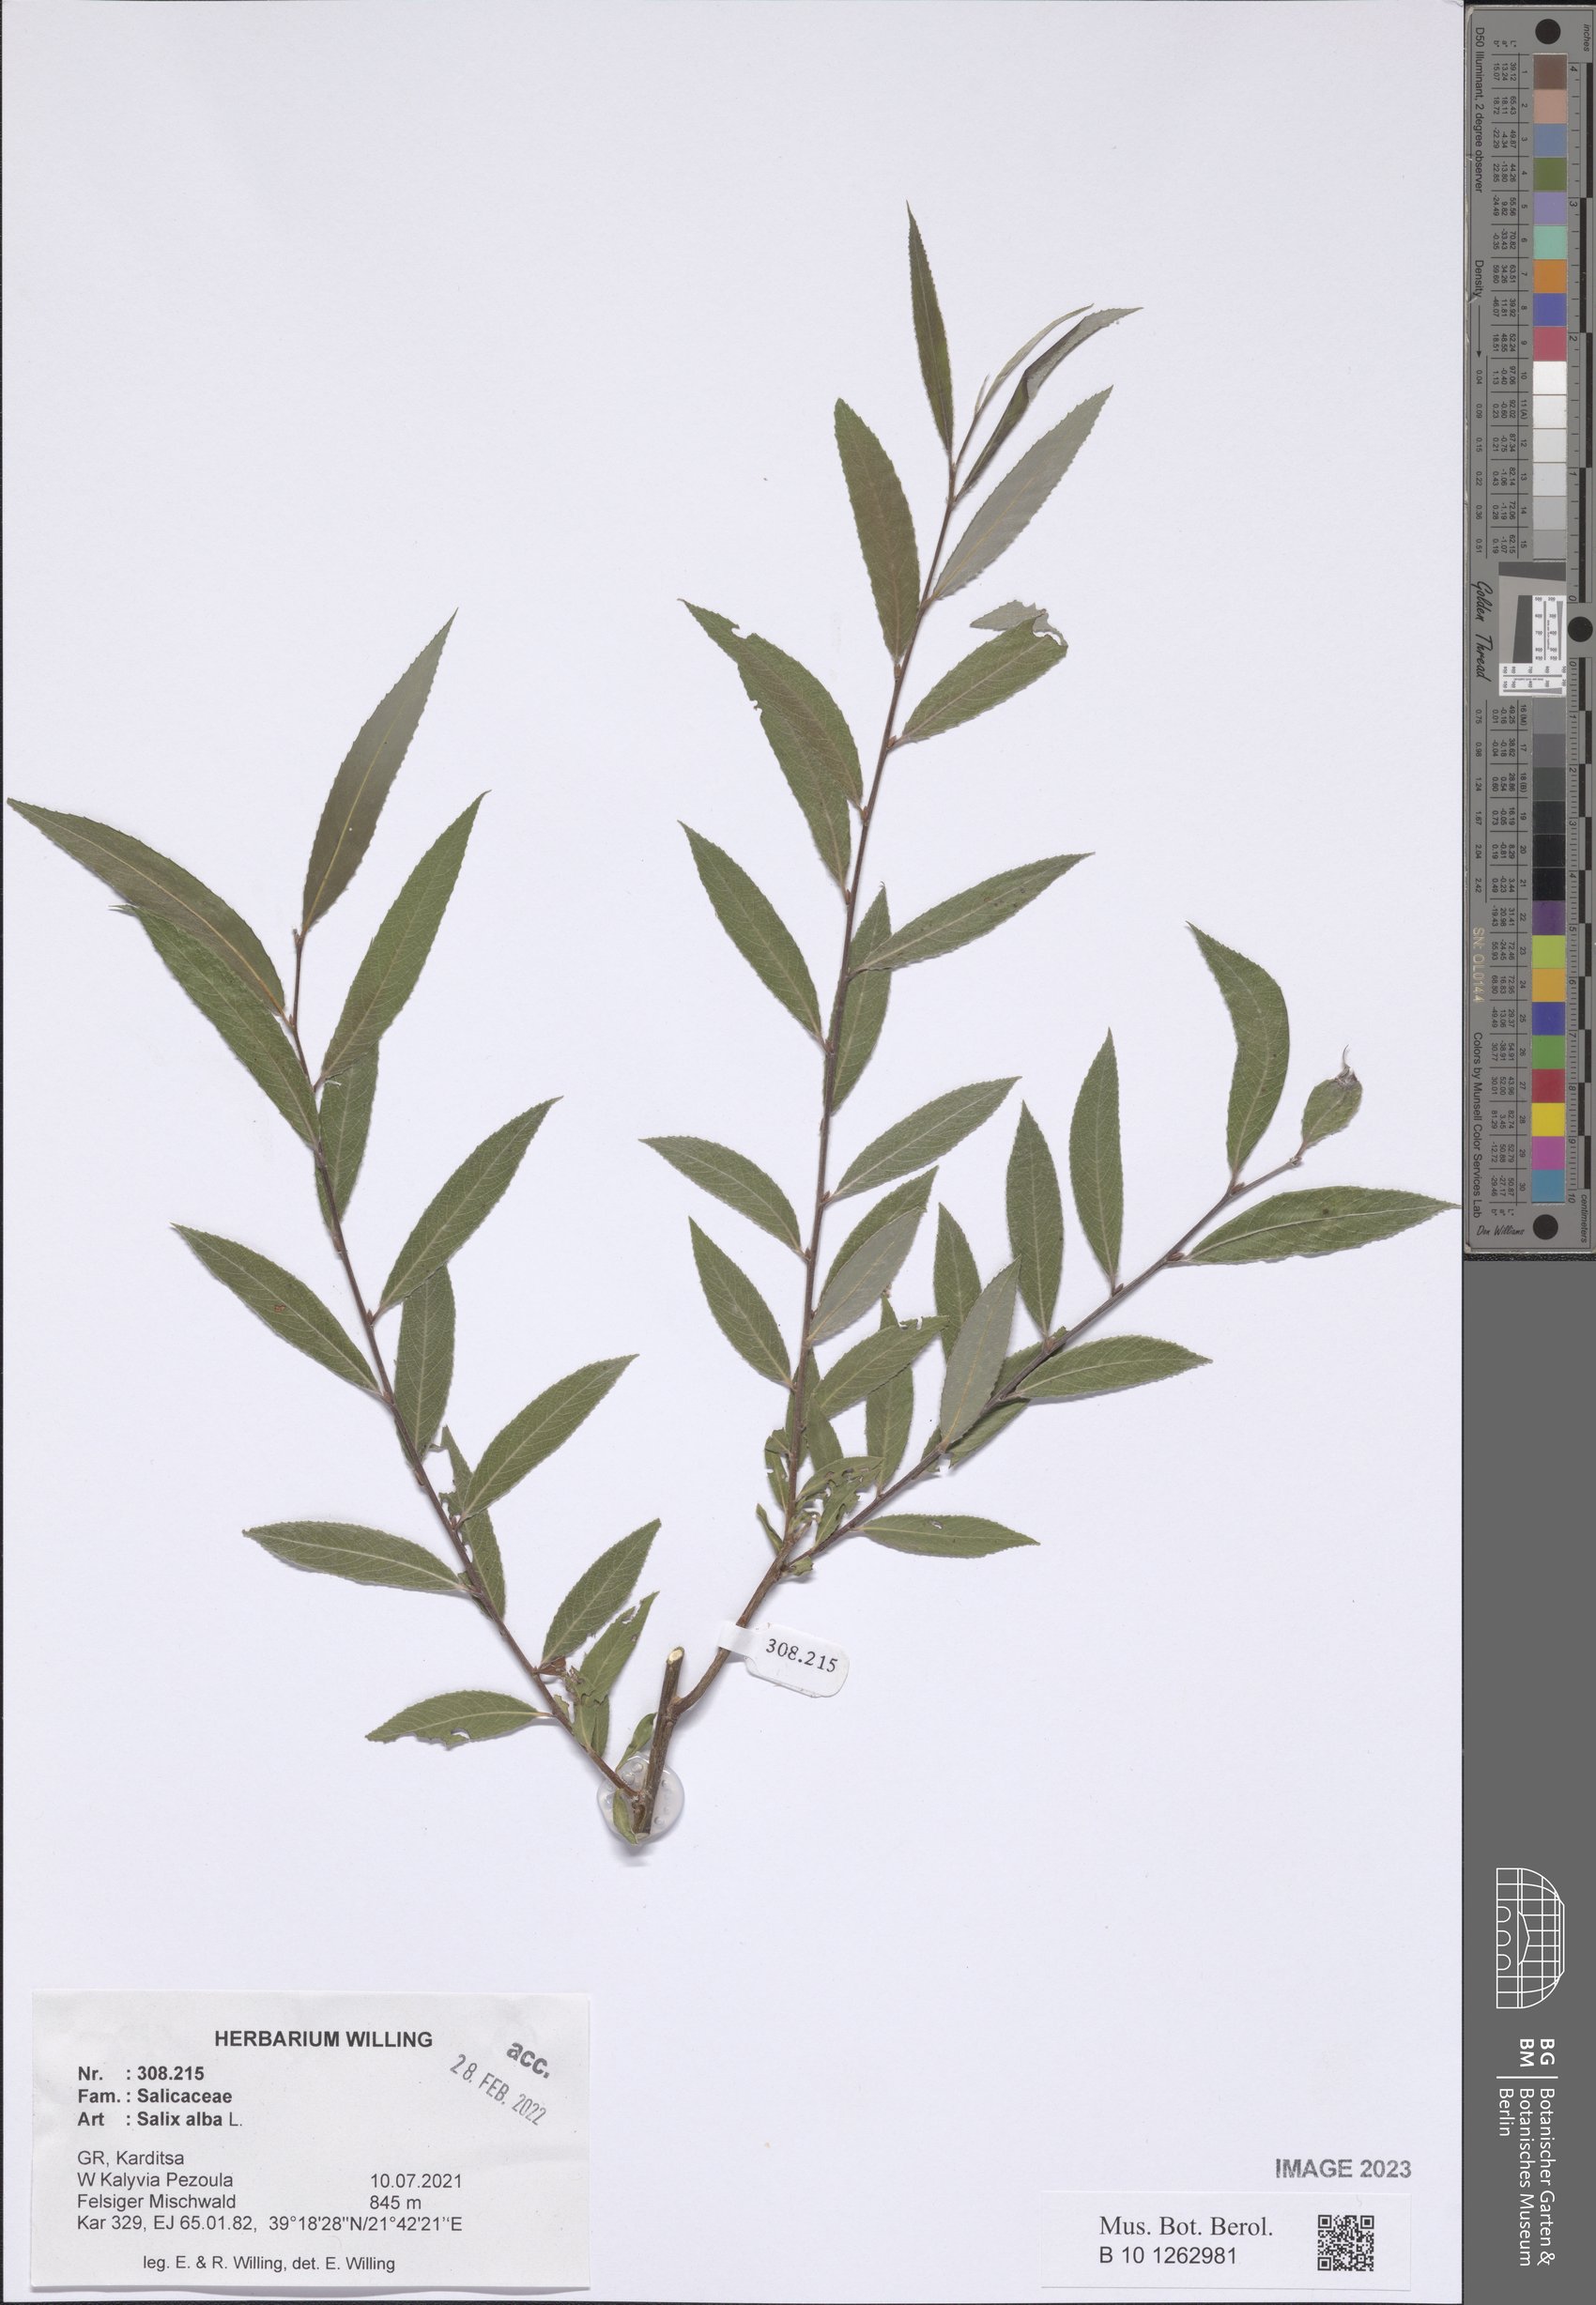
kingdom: Plantae
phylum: Tracheophyta
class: Magnoliopsida
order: Malpighiales
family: Salicaceae
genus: Salix
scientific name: Salix alba
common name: White willow
